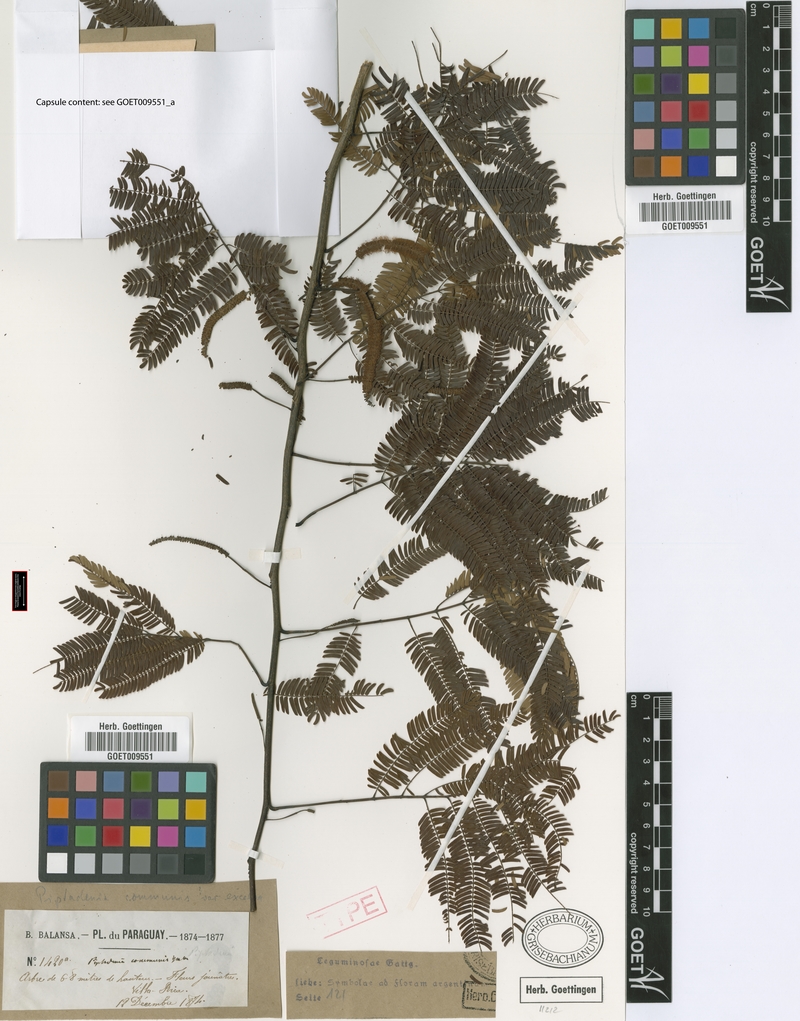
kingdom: Plantae
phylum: Tracheophyta
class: Magnoliopsida
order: Fabales
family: Fabaceae
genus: Parapiptadenia
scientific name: Parapiptadenia excelsa
